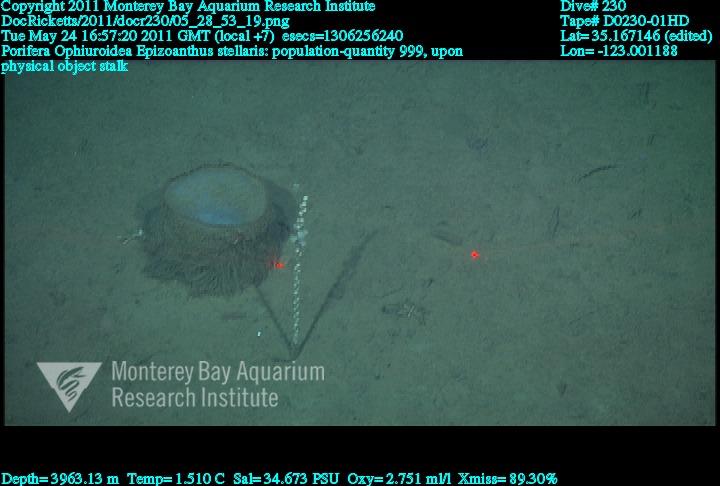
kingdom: Animalia
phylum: Porifera
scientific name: Porifera
